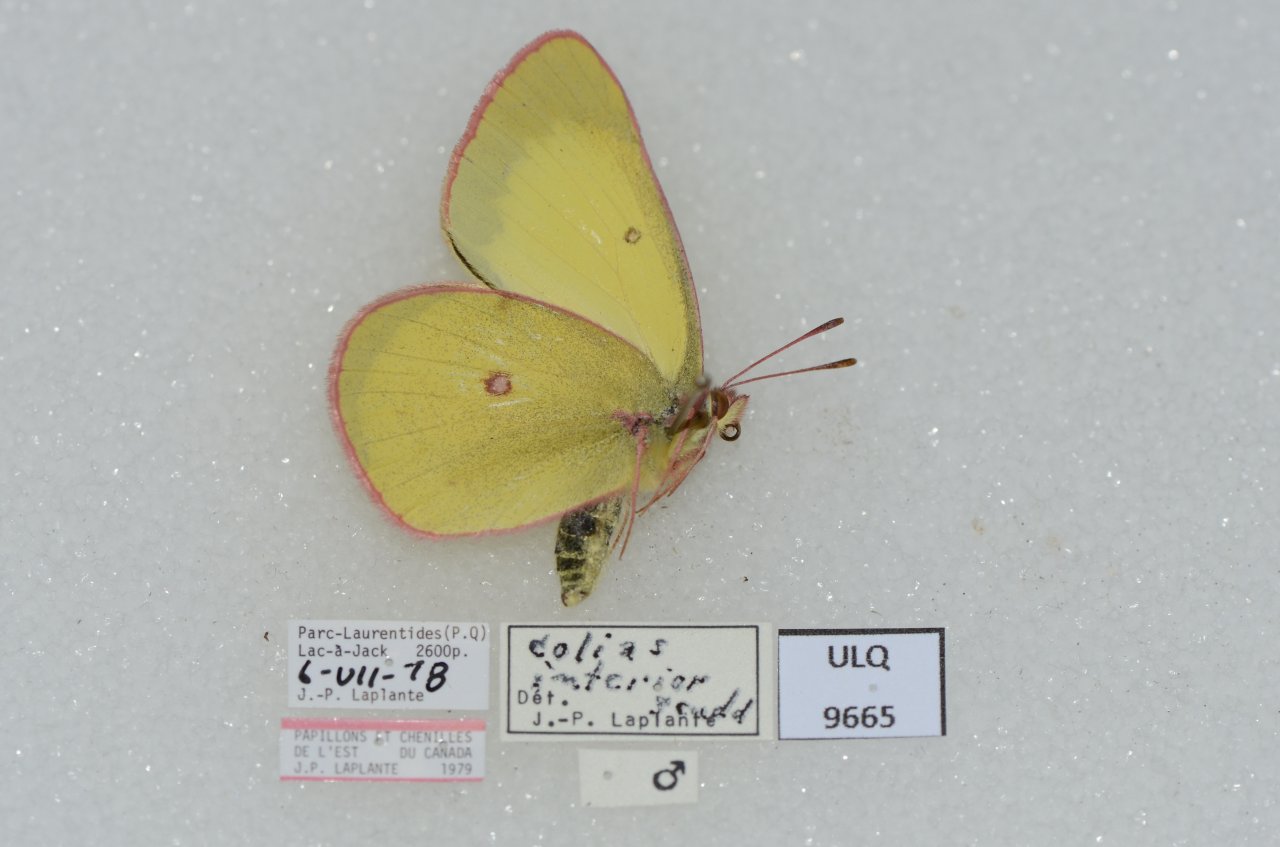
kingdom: Animalia
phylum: Arthropoda
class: Insecta
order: Lepidoptera
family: Pieridae
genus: Colias
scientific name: Colias interior
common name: Pink-edged Sulphur
